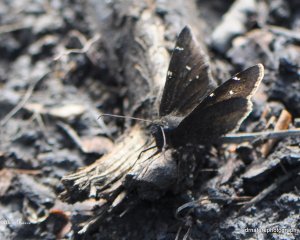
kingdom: Animalia
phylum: Arthropoda
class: Insecta
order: Lepidoptera
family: Hesperiidae
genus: Autochton
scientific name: Autochton
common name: Northern Cloudywing
